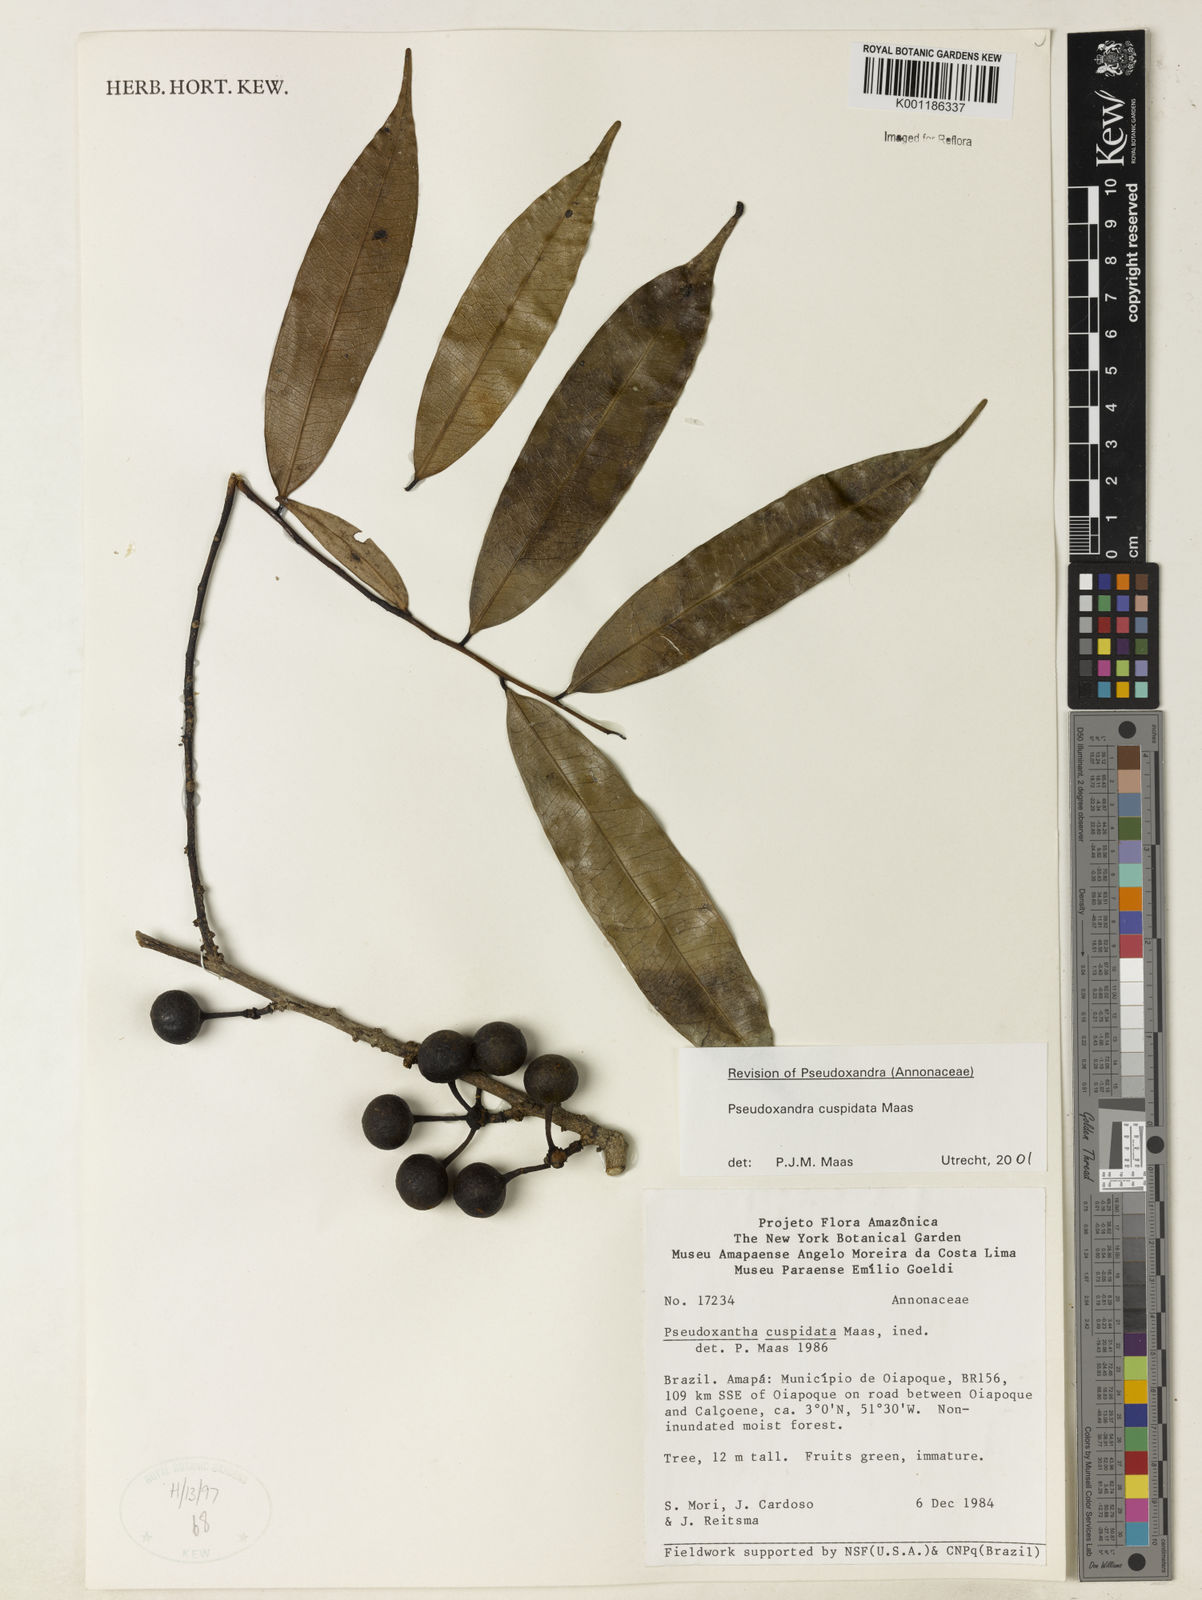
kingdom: Plantae
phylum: Tracheophyta
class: Magnoliopsida
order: Magnoliales
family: Annonaceae
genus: Pseudoxandra
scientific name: Pseudoxandra cuspidata
